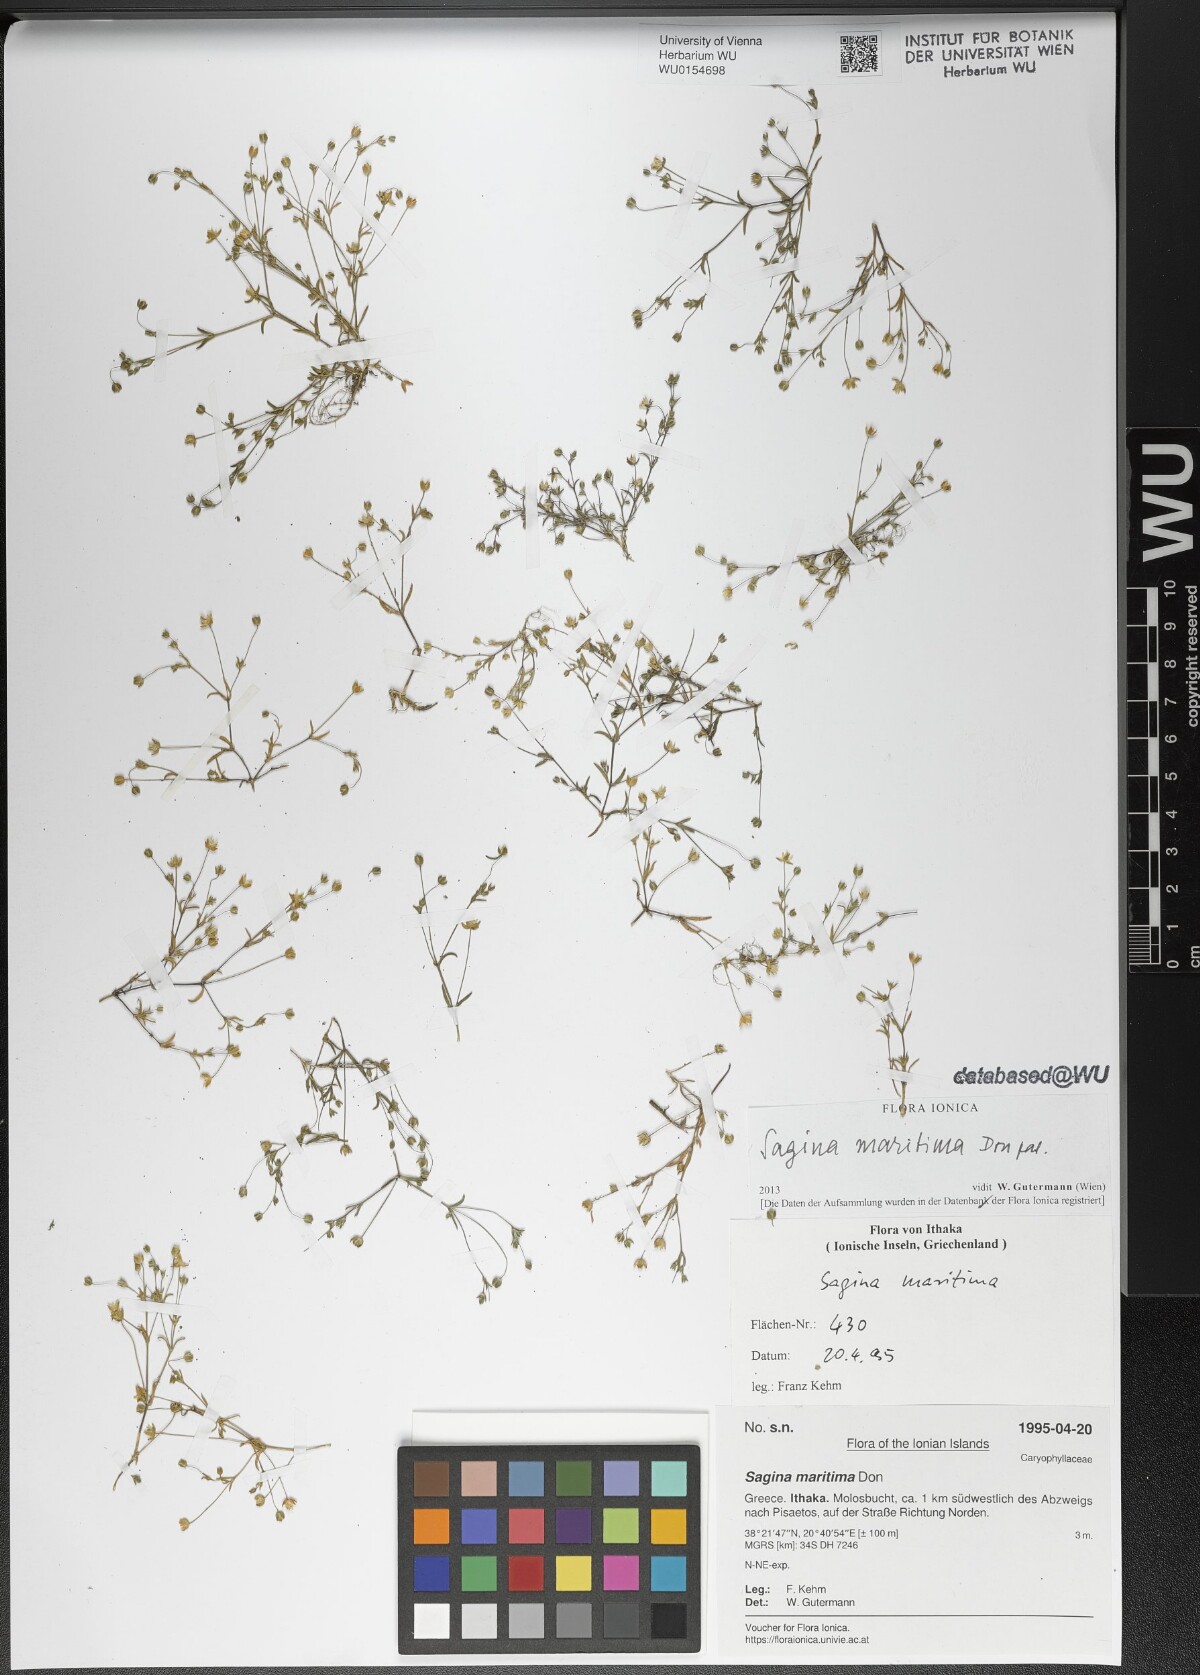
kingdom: Plantae
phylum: Tracheophyta
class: Magnoliopsida
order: Caryophyllales
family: Caryophyllaceae
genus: Sagina
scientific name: Sagina maritima
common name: Sea pearlwort
